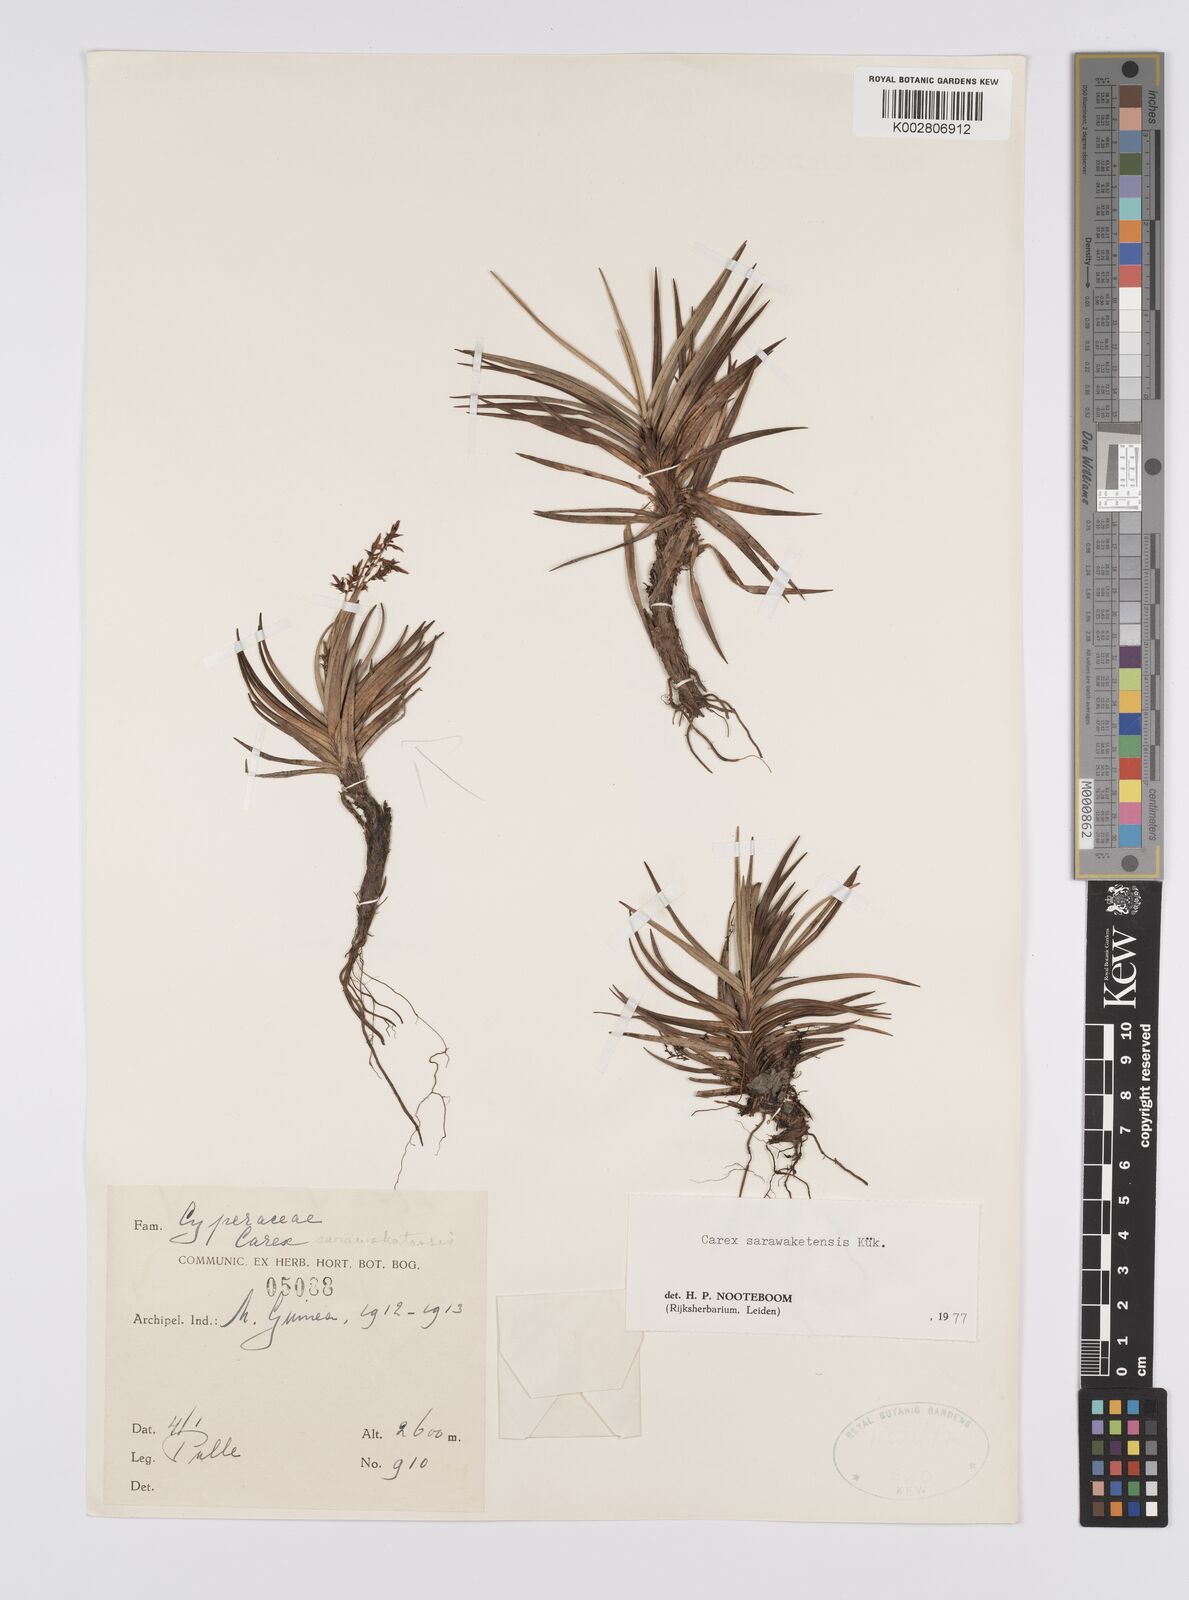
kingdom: Plantae
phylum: Tracheophyta
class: Liliopsida
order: Poales
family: Cyperaceae
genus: Carex
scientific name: Carex sarawaketensis
